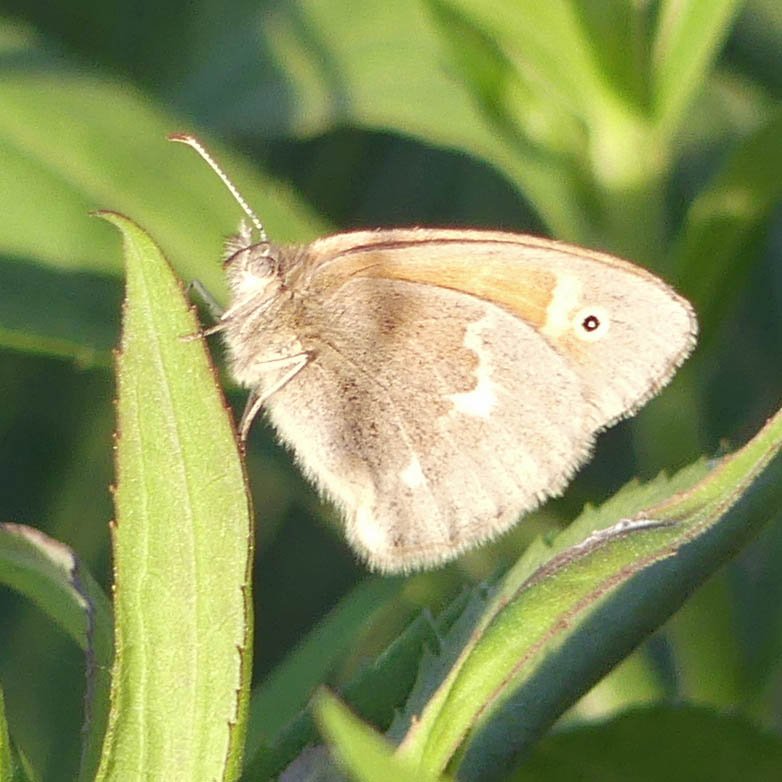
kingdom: Animalia
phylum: Arthropoda
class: Insecta
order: Lepidoptera
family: Nymphalidae
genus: Coenonympha
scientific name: Coenonympha tullia
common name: Large Heath
